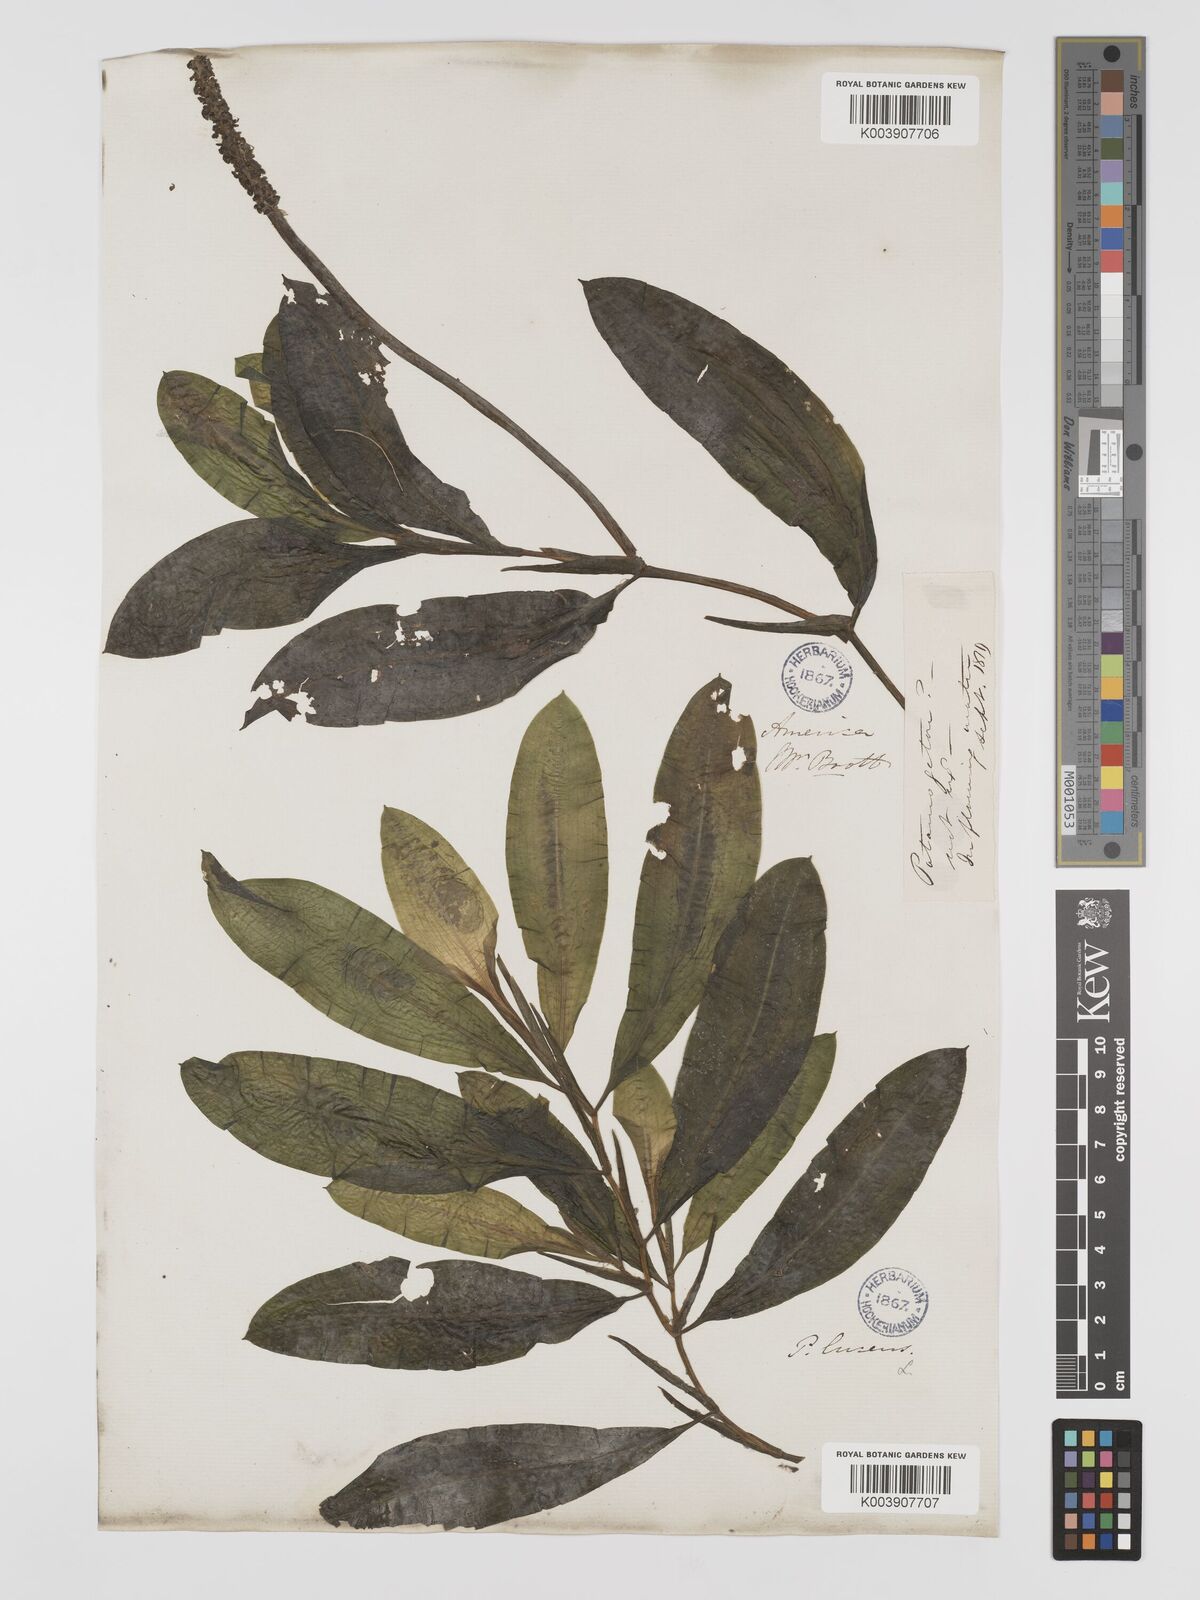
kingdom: Plantae
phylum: Tracheophyta
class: Liliopsida
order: Alismatales
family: Potamogetonaceae
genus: Potamogeton
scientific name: Potamogeton illinoensis
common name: Illinois pondweed
